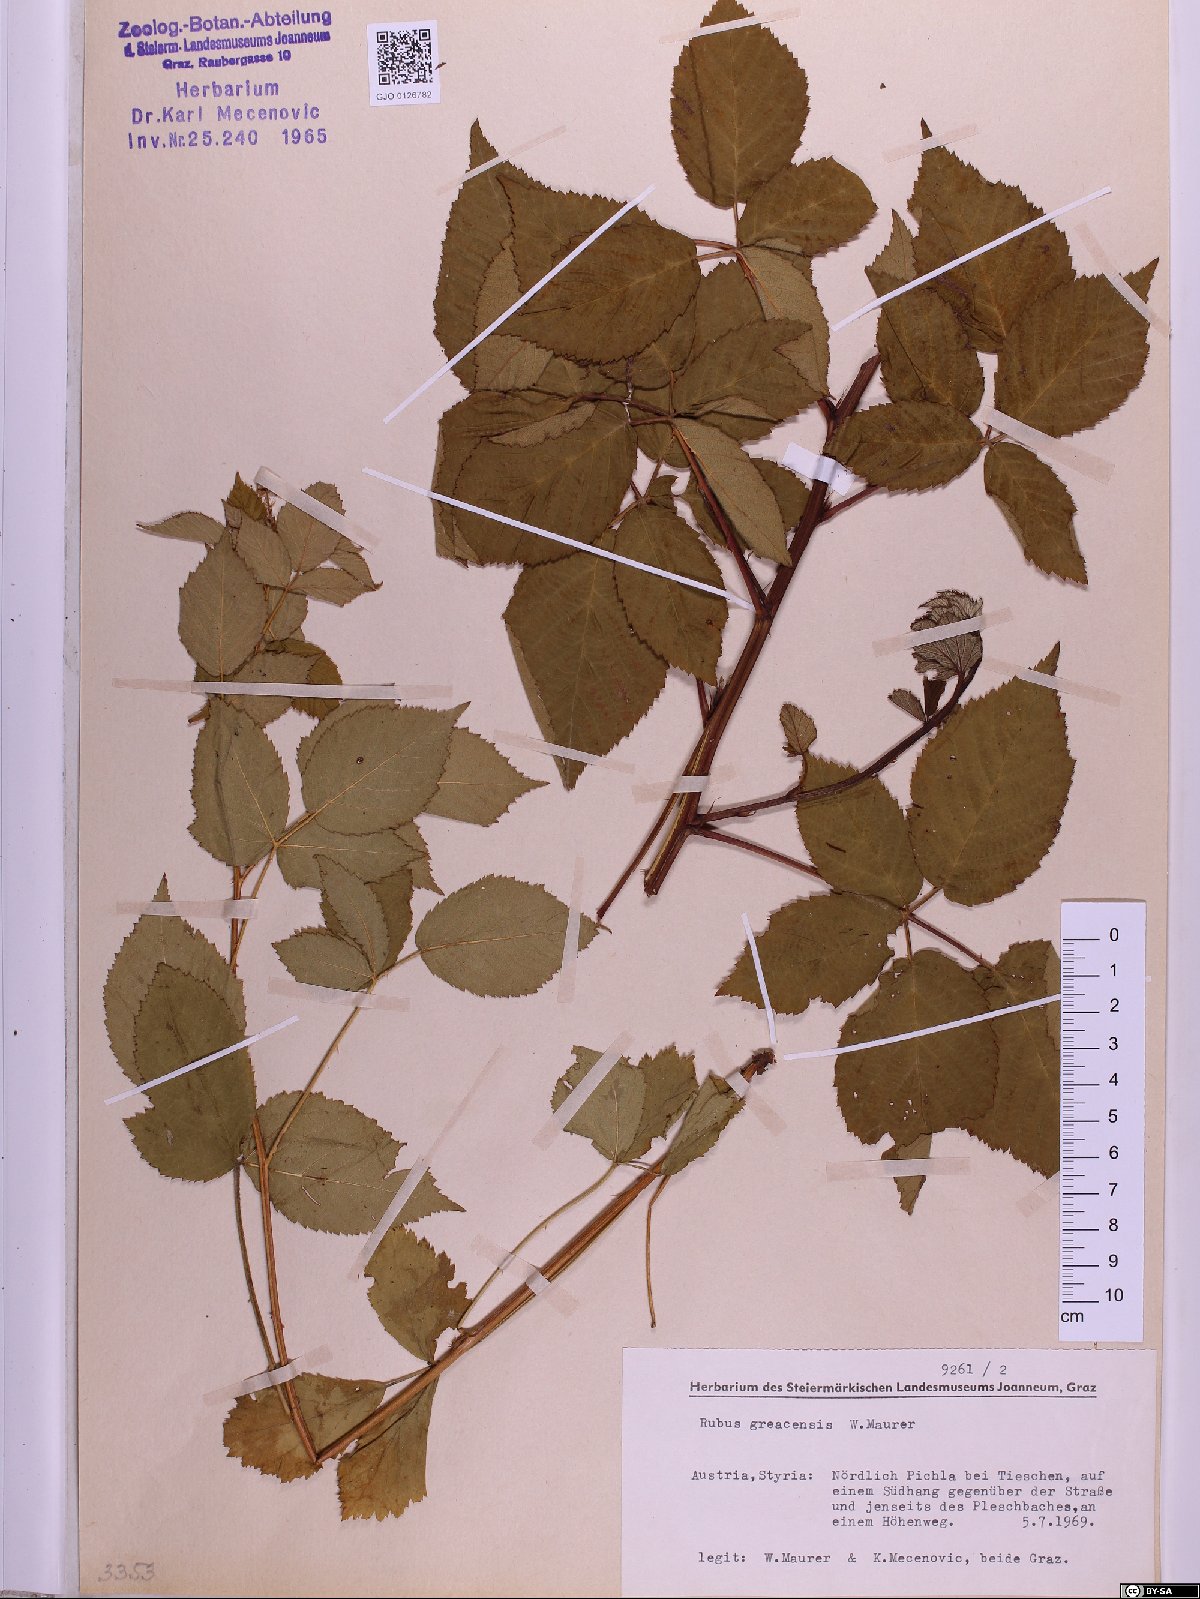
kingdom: Plantae
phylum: Tracheophyta
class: Magnoliopsida
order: Rosales
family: Rosaceae
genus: Rubus
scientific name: Rubus graecensis
